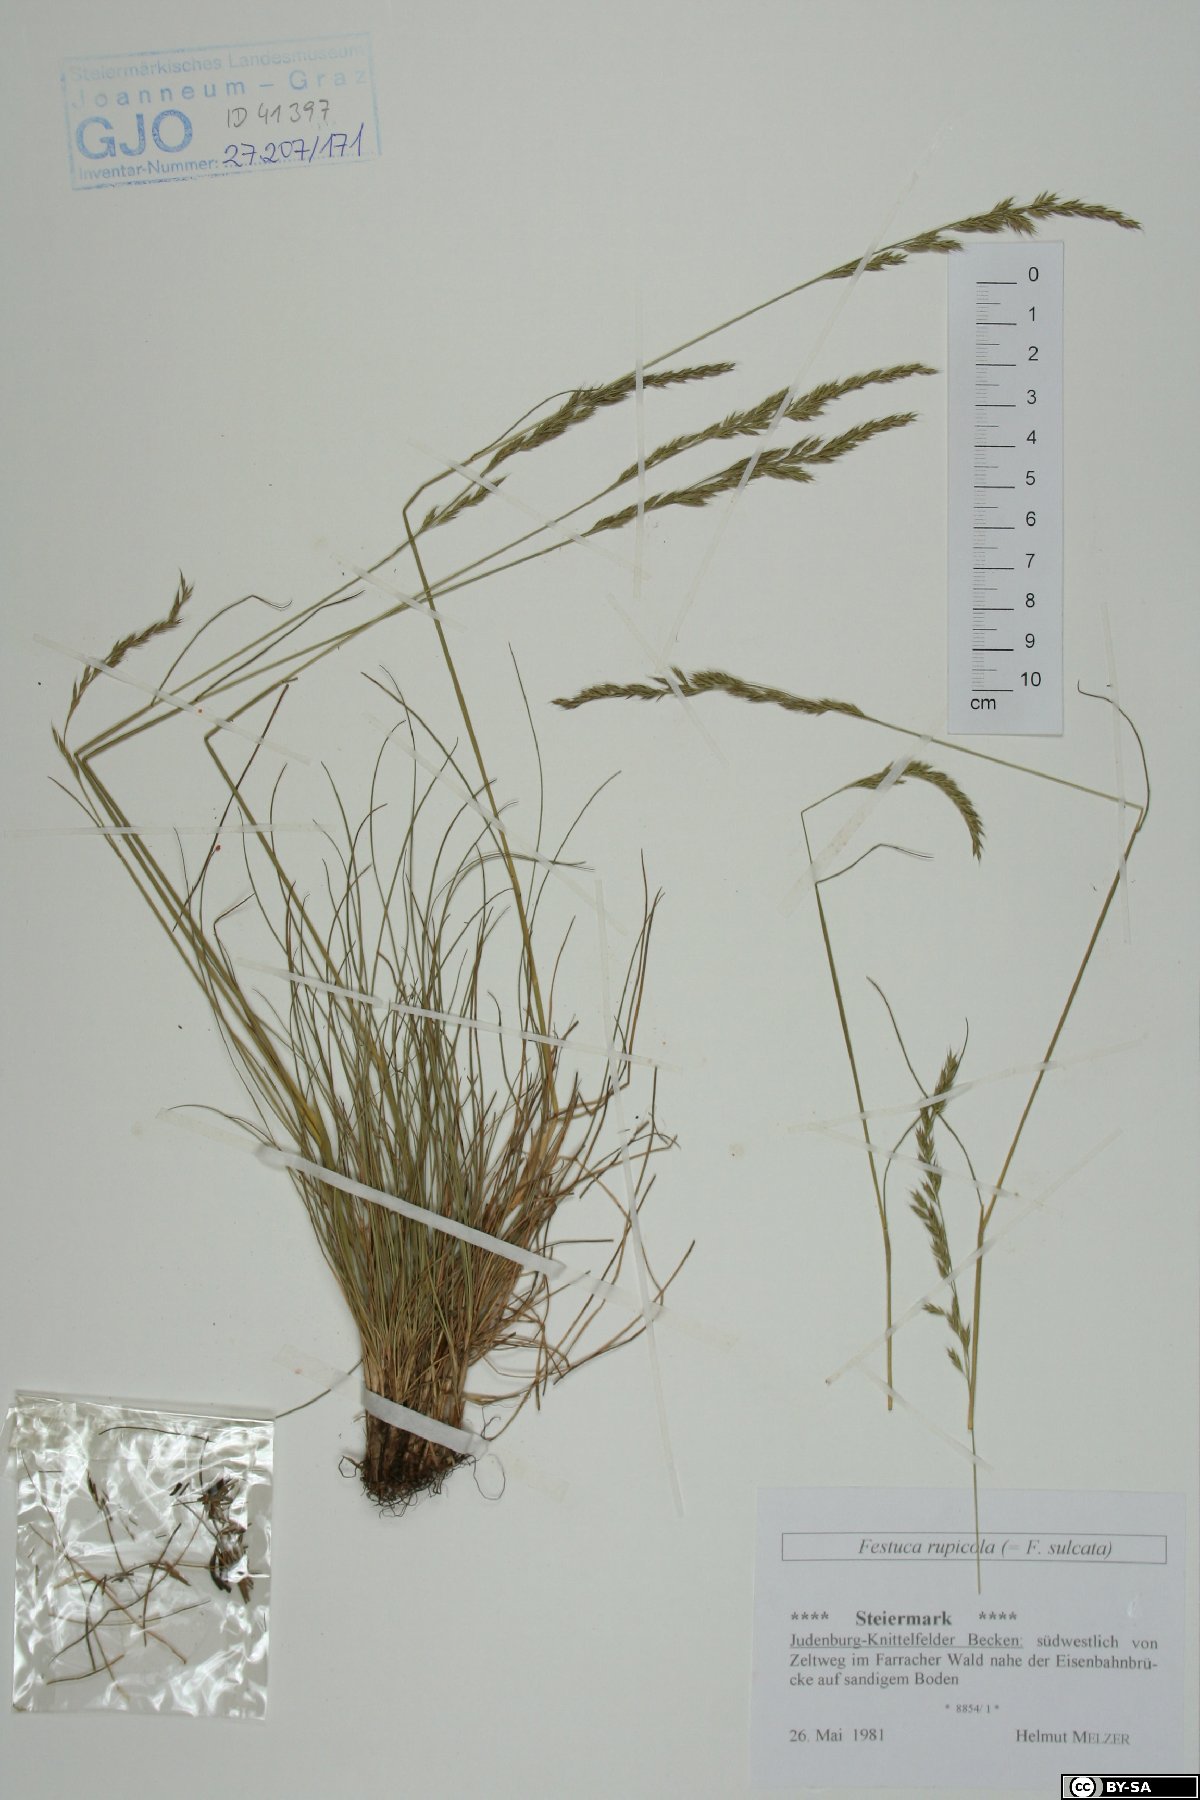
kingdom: Plantae
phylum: Tracheophyta
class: Liliopsida
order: Poales
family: Poaceae
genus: Festuca
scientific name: Festuca rupicola
